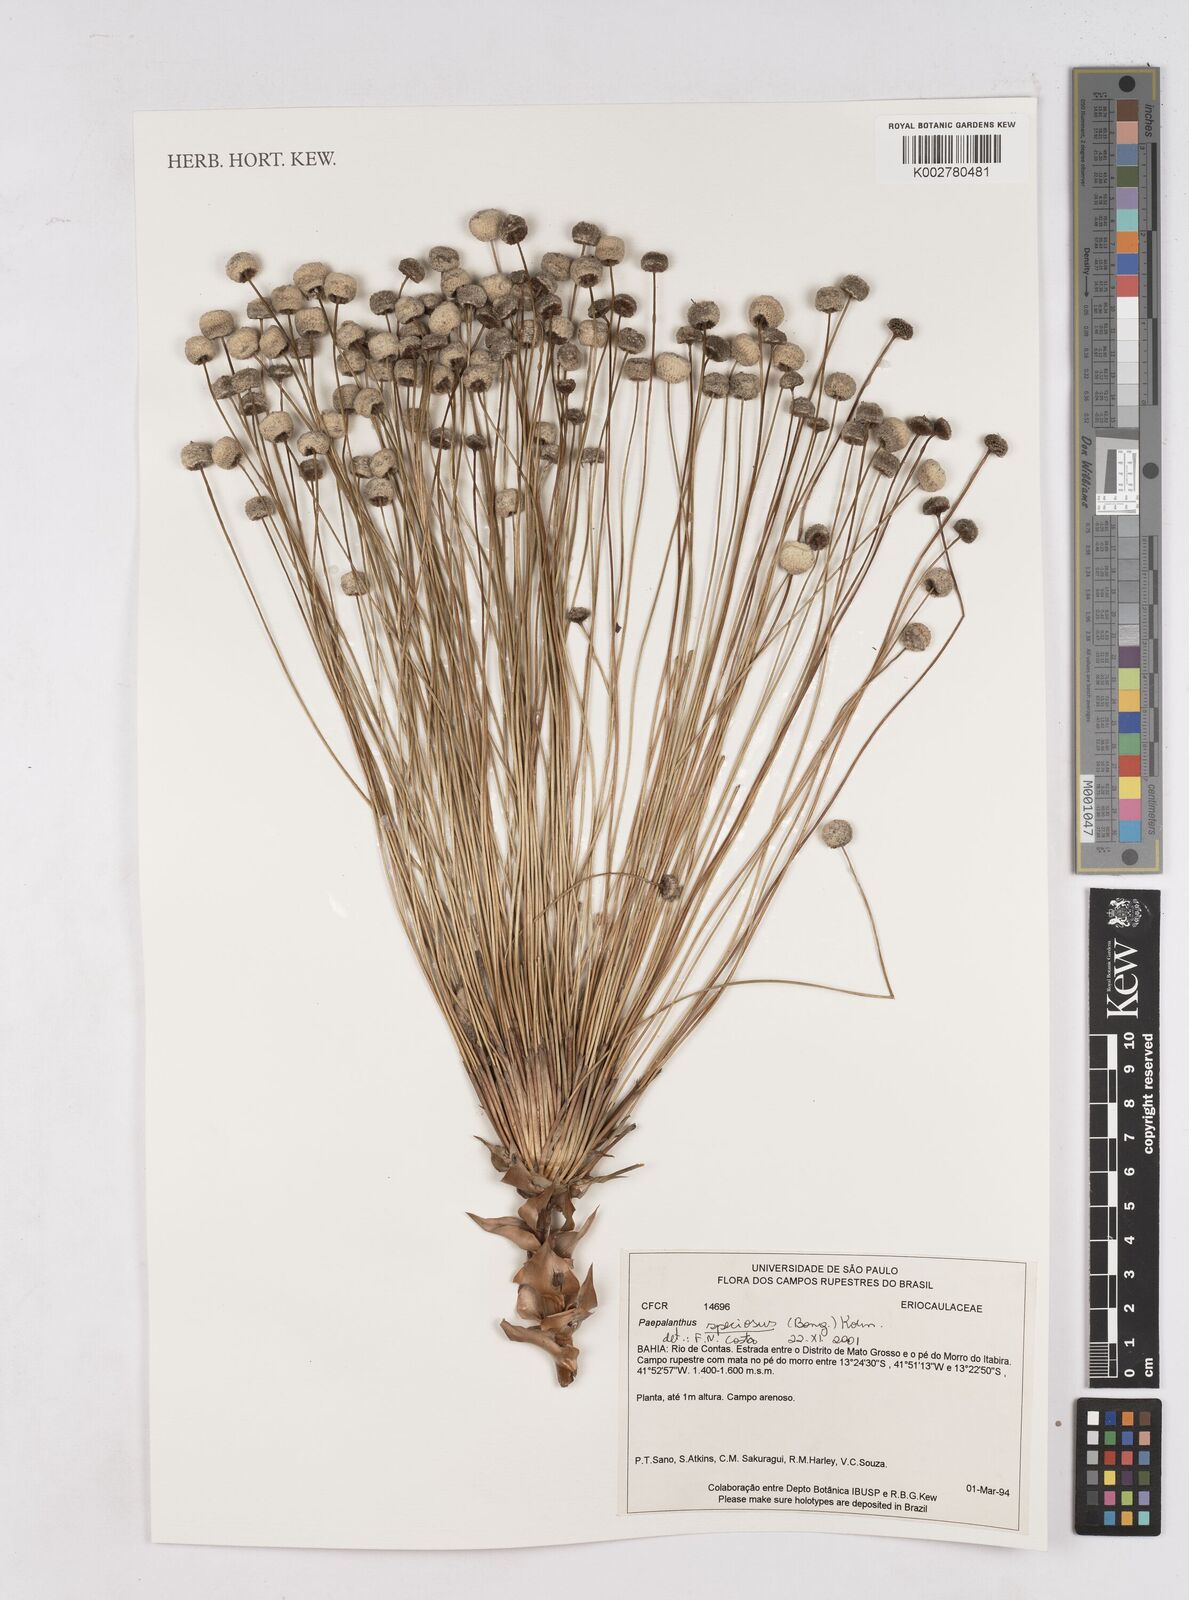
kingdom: Plantae
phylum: Tracheophyta
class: Liliopsida
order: Poales
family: Eriocaulaceae
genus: Paepalanthus
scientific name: Paepalanthus chiquitensis
